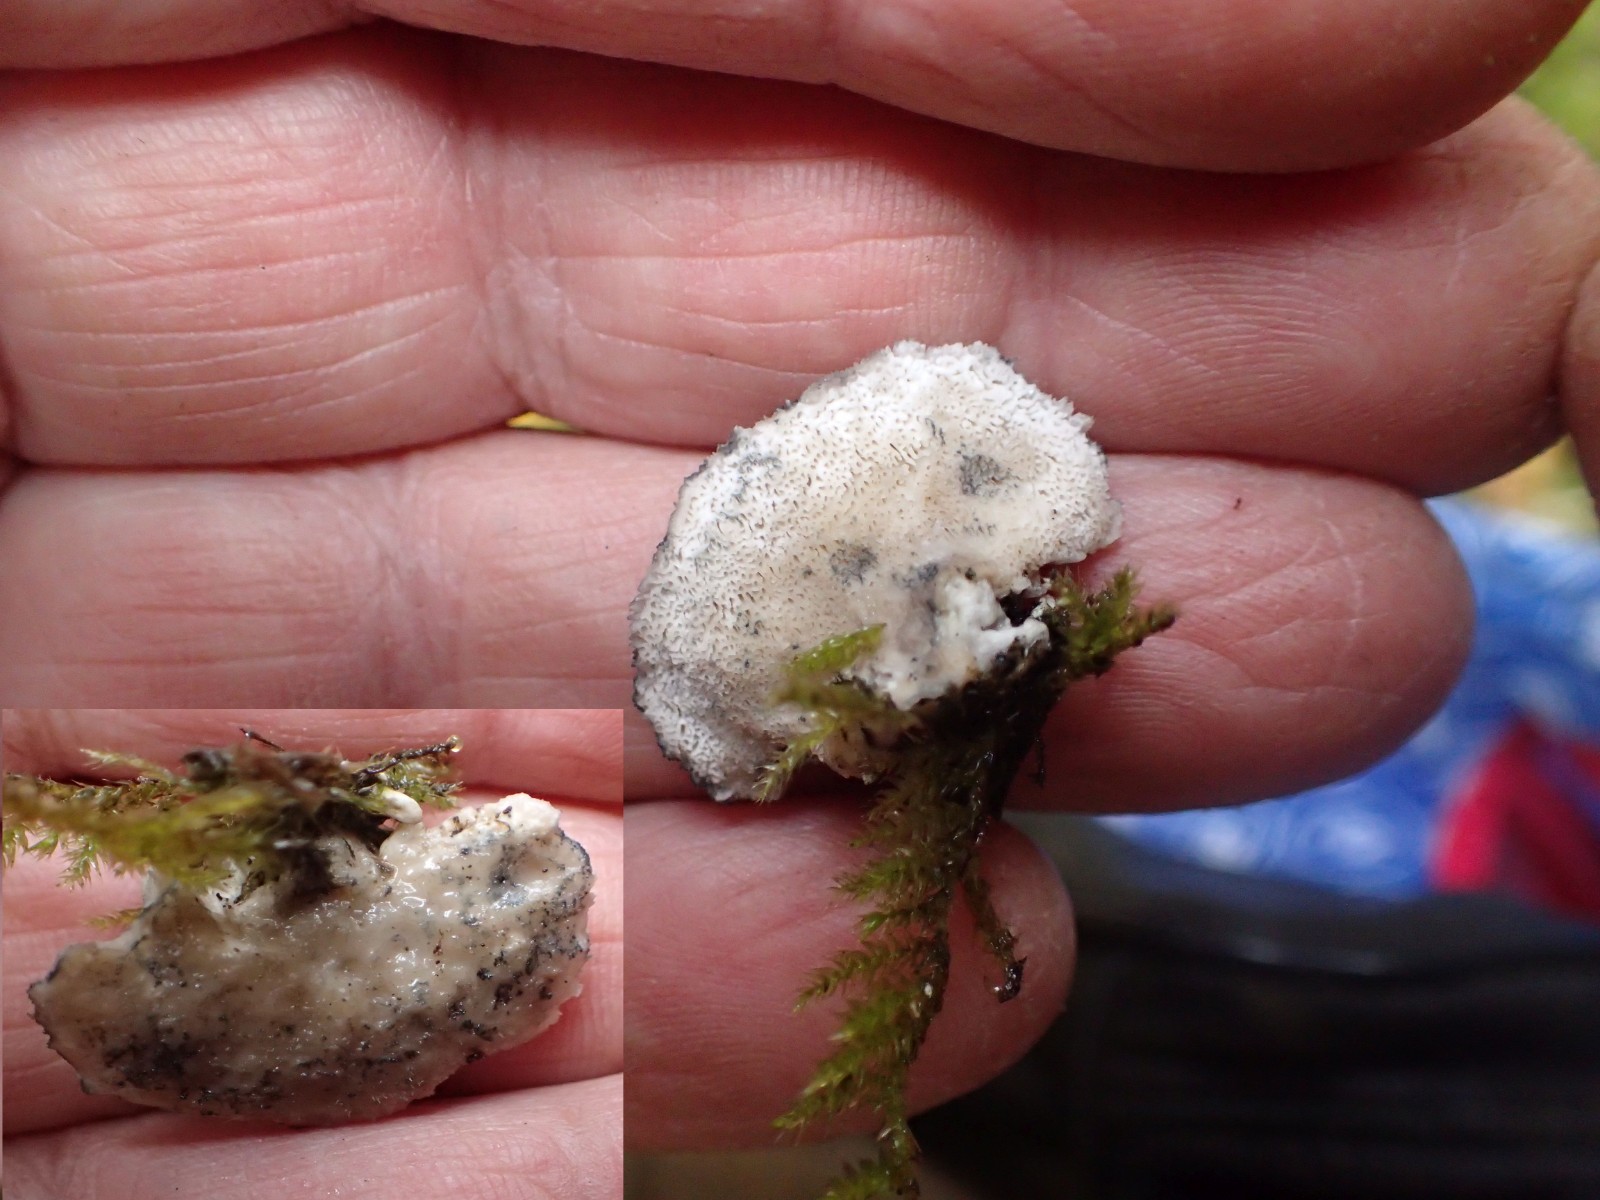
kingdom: Fungi
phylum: Basidiomycota
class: Agaricomycetes
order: Polyporales
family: Polyporaceae
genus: Cyanosporus
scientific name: Cyanosporus alni
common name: blegblå kødporesvamp
